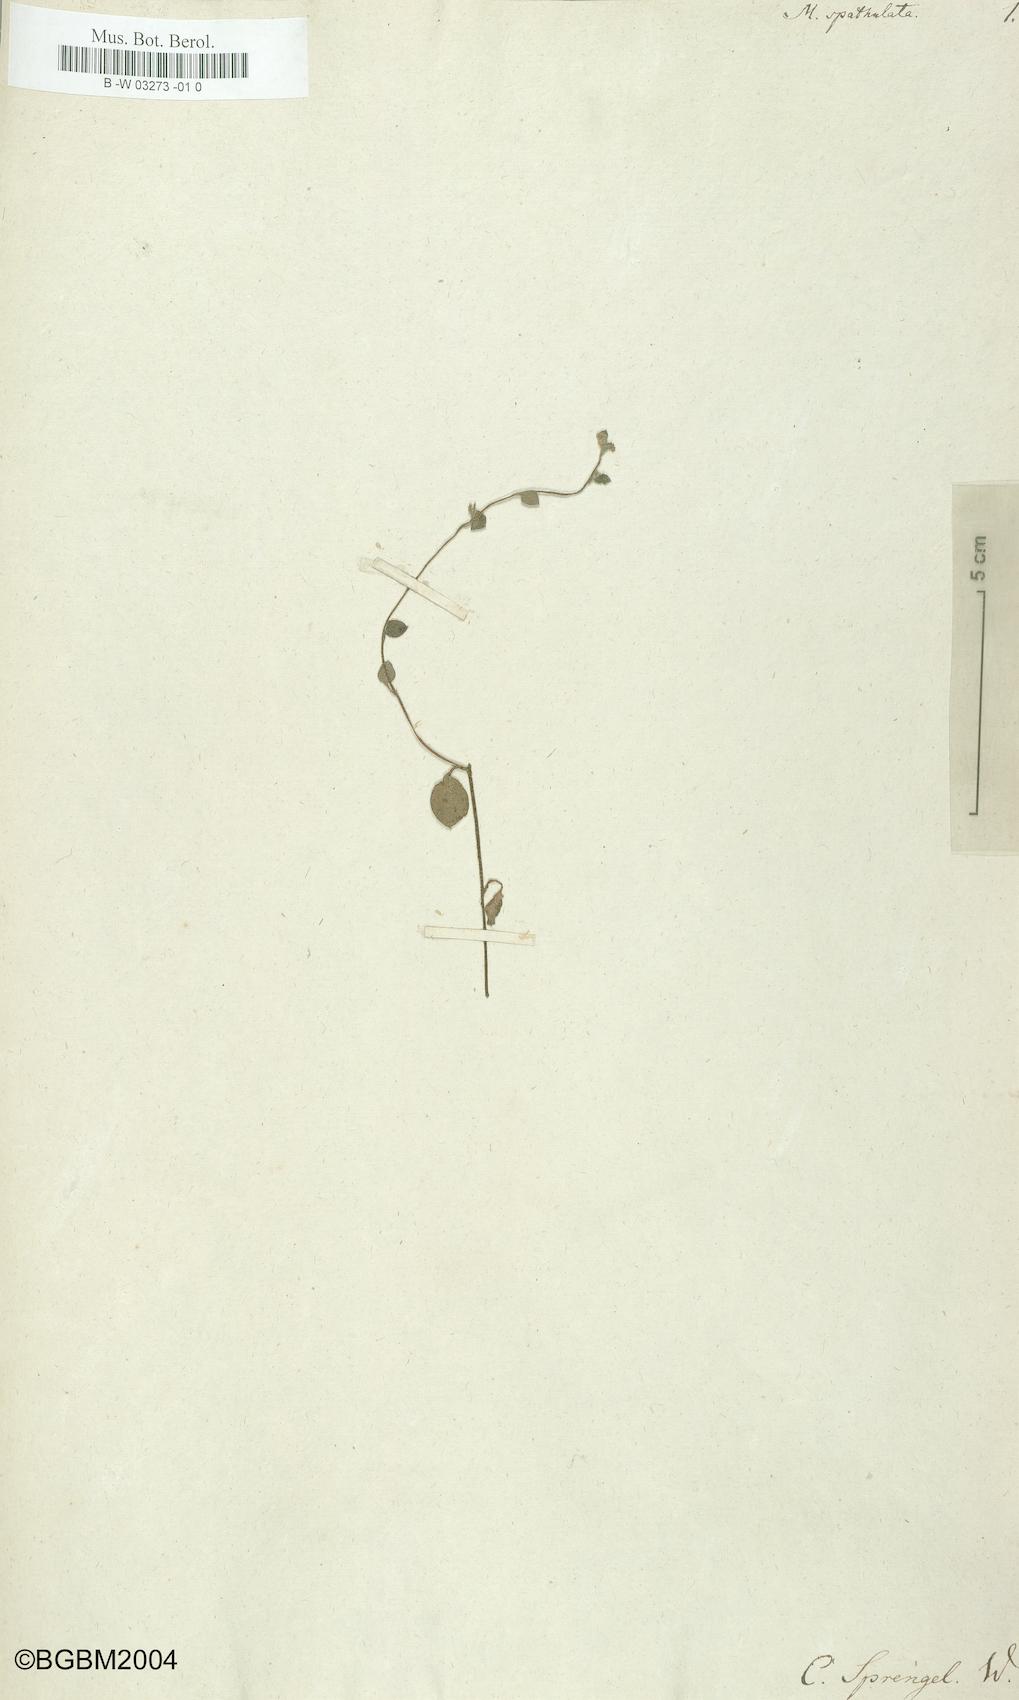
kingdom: Plantae
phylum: Tracheophyta
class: Magnoliopsida
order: Boraginales
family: Boraginaceae
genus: Myosotis
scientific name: Myosotis spathulata
